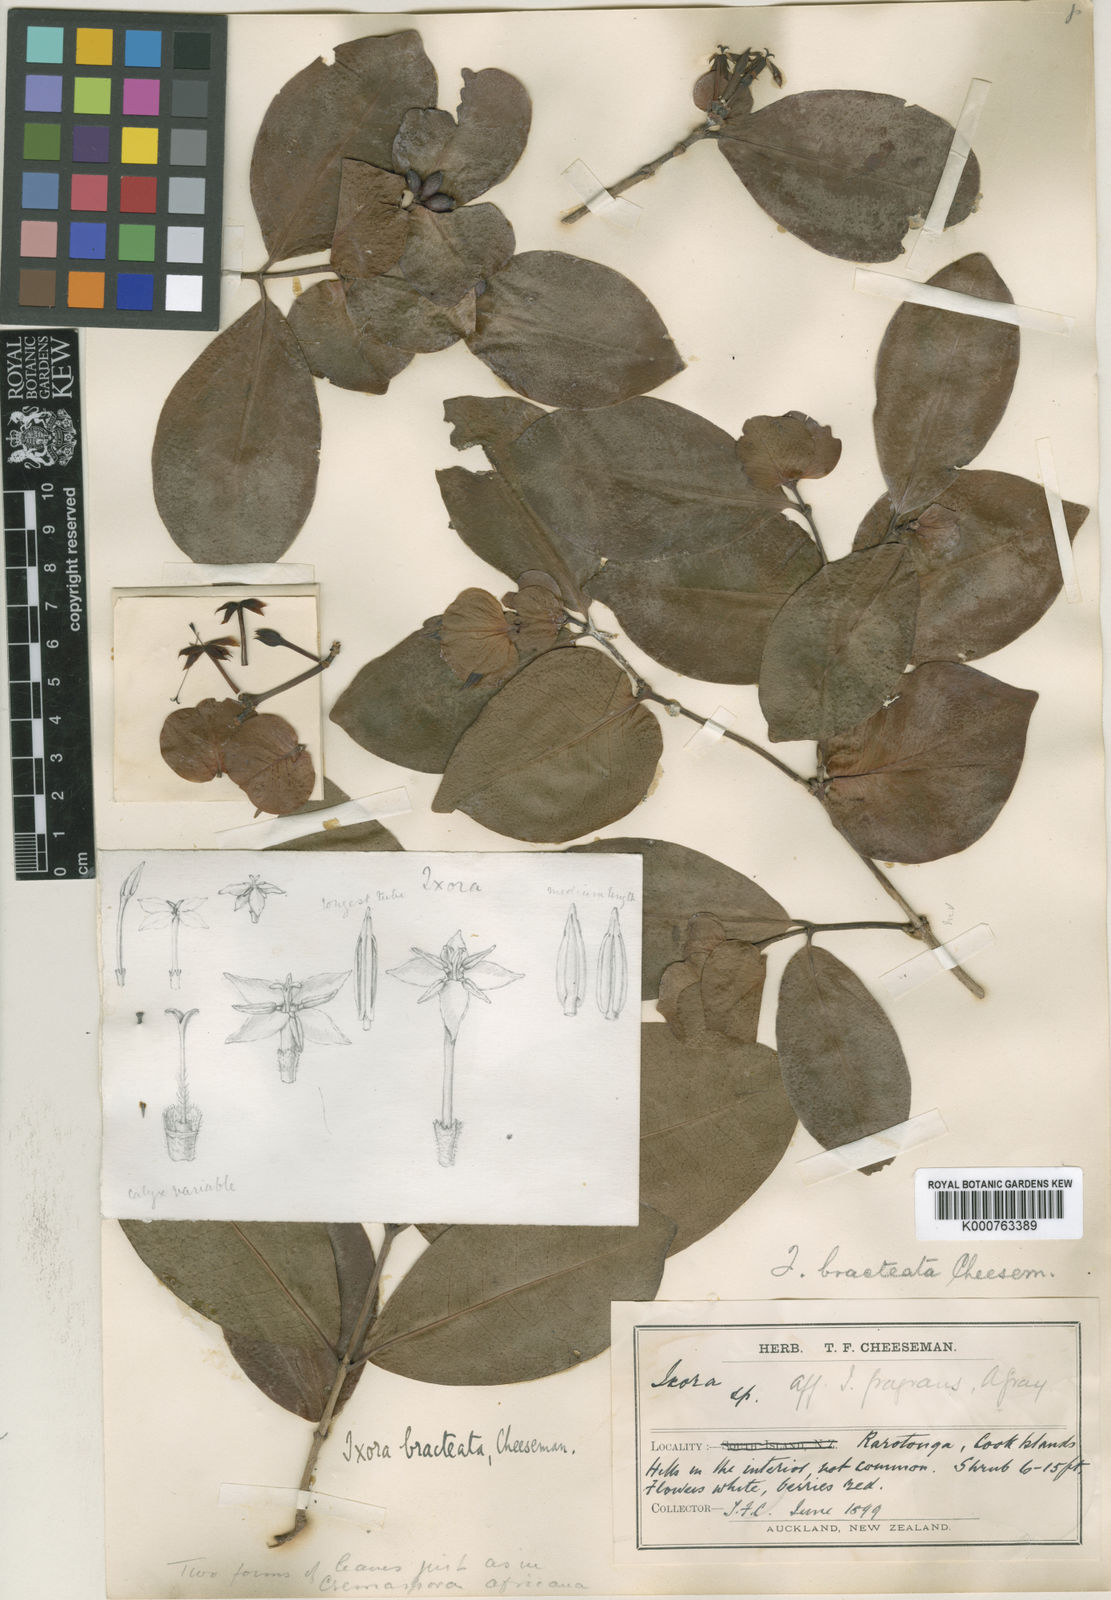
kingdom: Plantae
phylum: Tracheophyta
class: Magnoliopsida
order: Gentianales
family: Rubiaceae
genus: Ixora
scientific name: Ixora foetida
